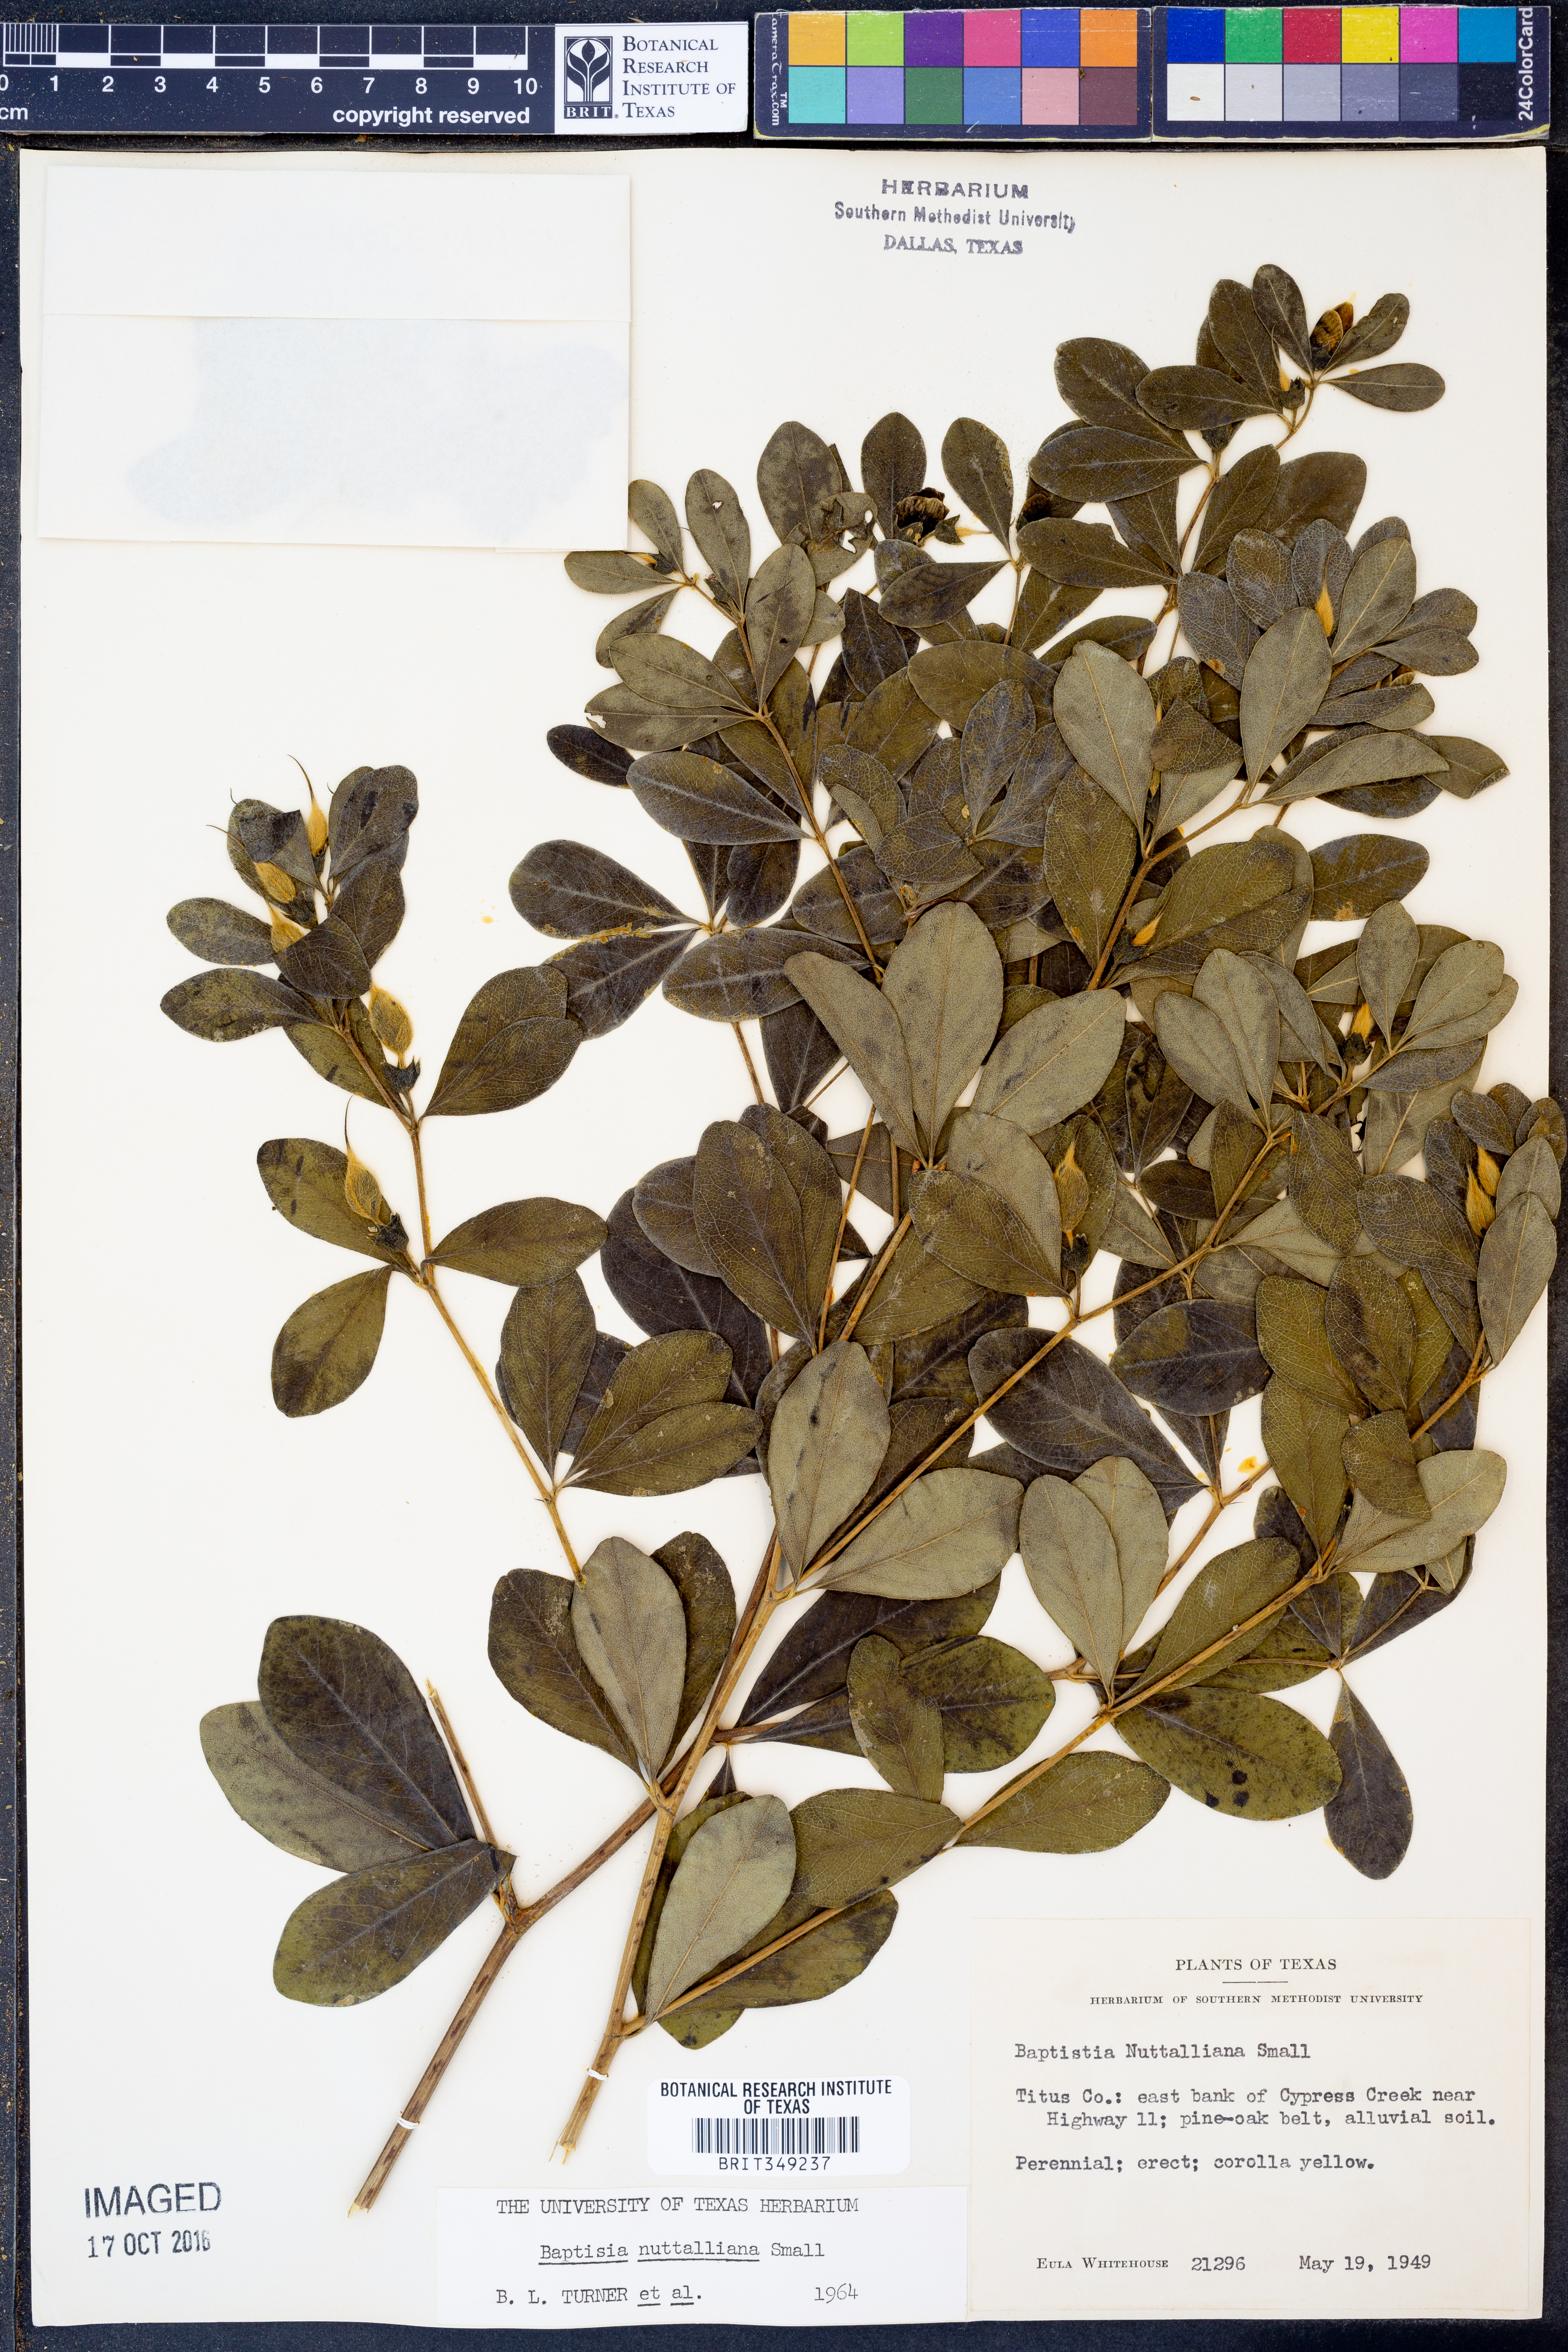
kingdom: Plantae
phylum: Tracheophyta
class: Magnoliopsida
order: Fabales
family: Fabaceae
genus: Baptisia
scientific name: Baptisia nuttalliana
